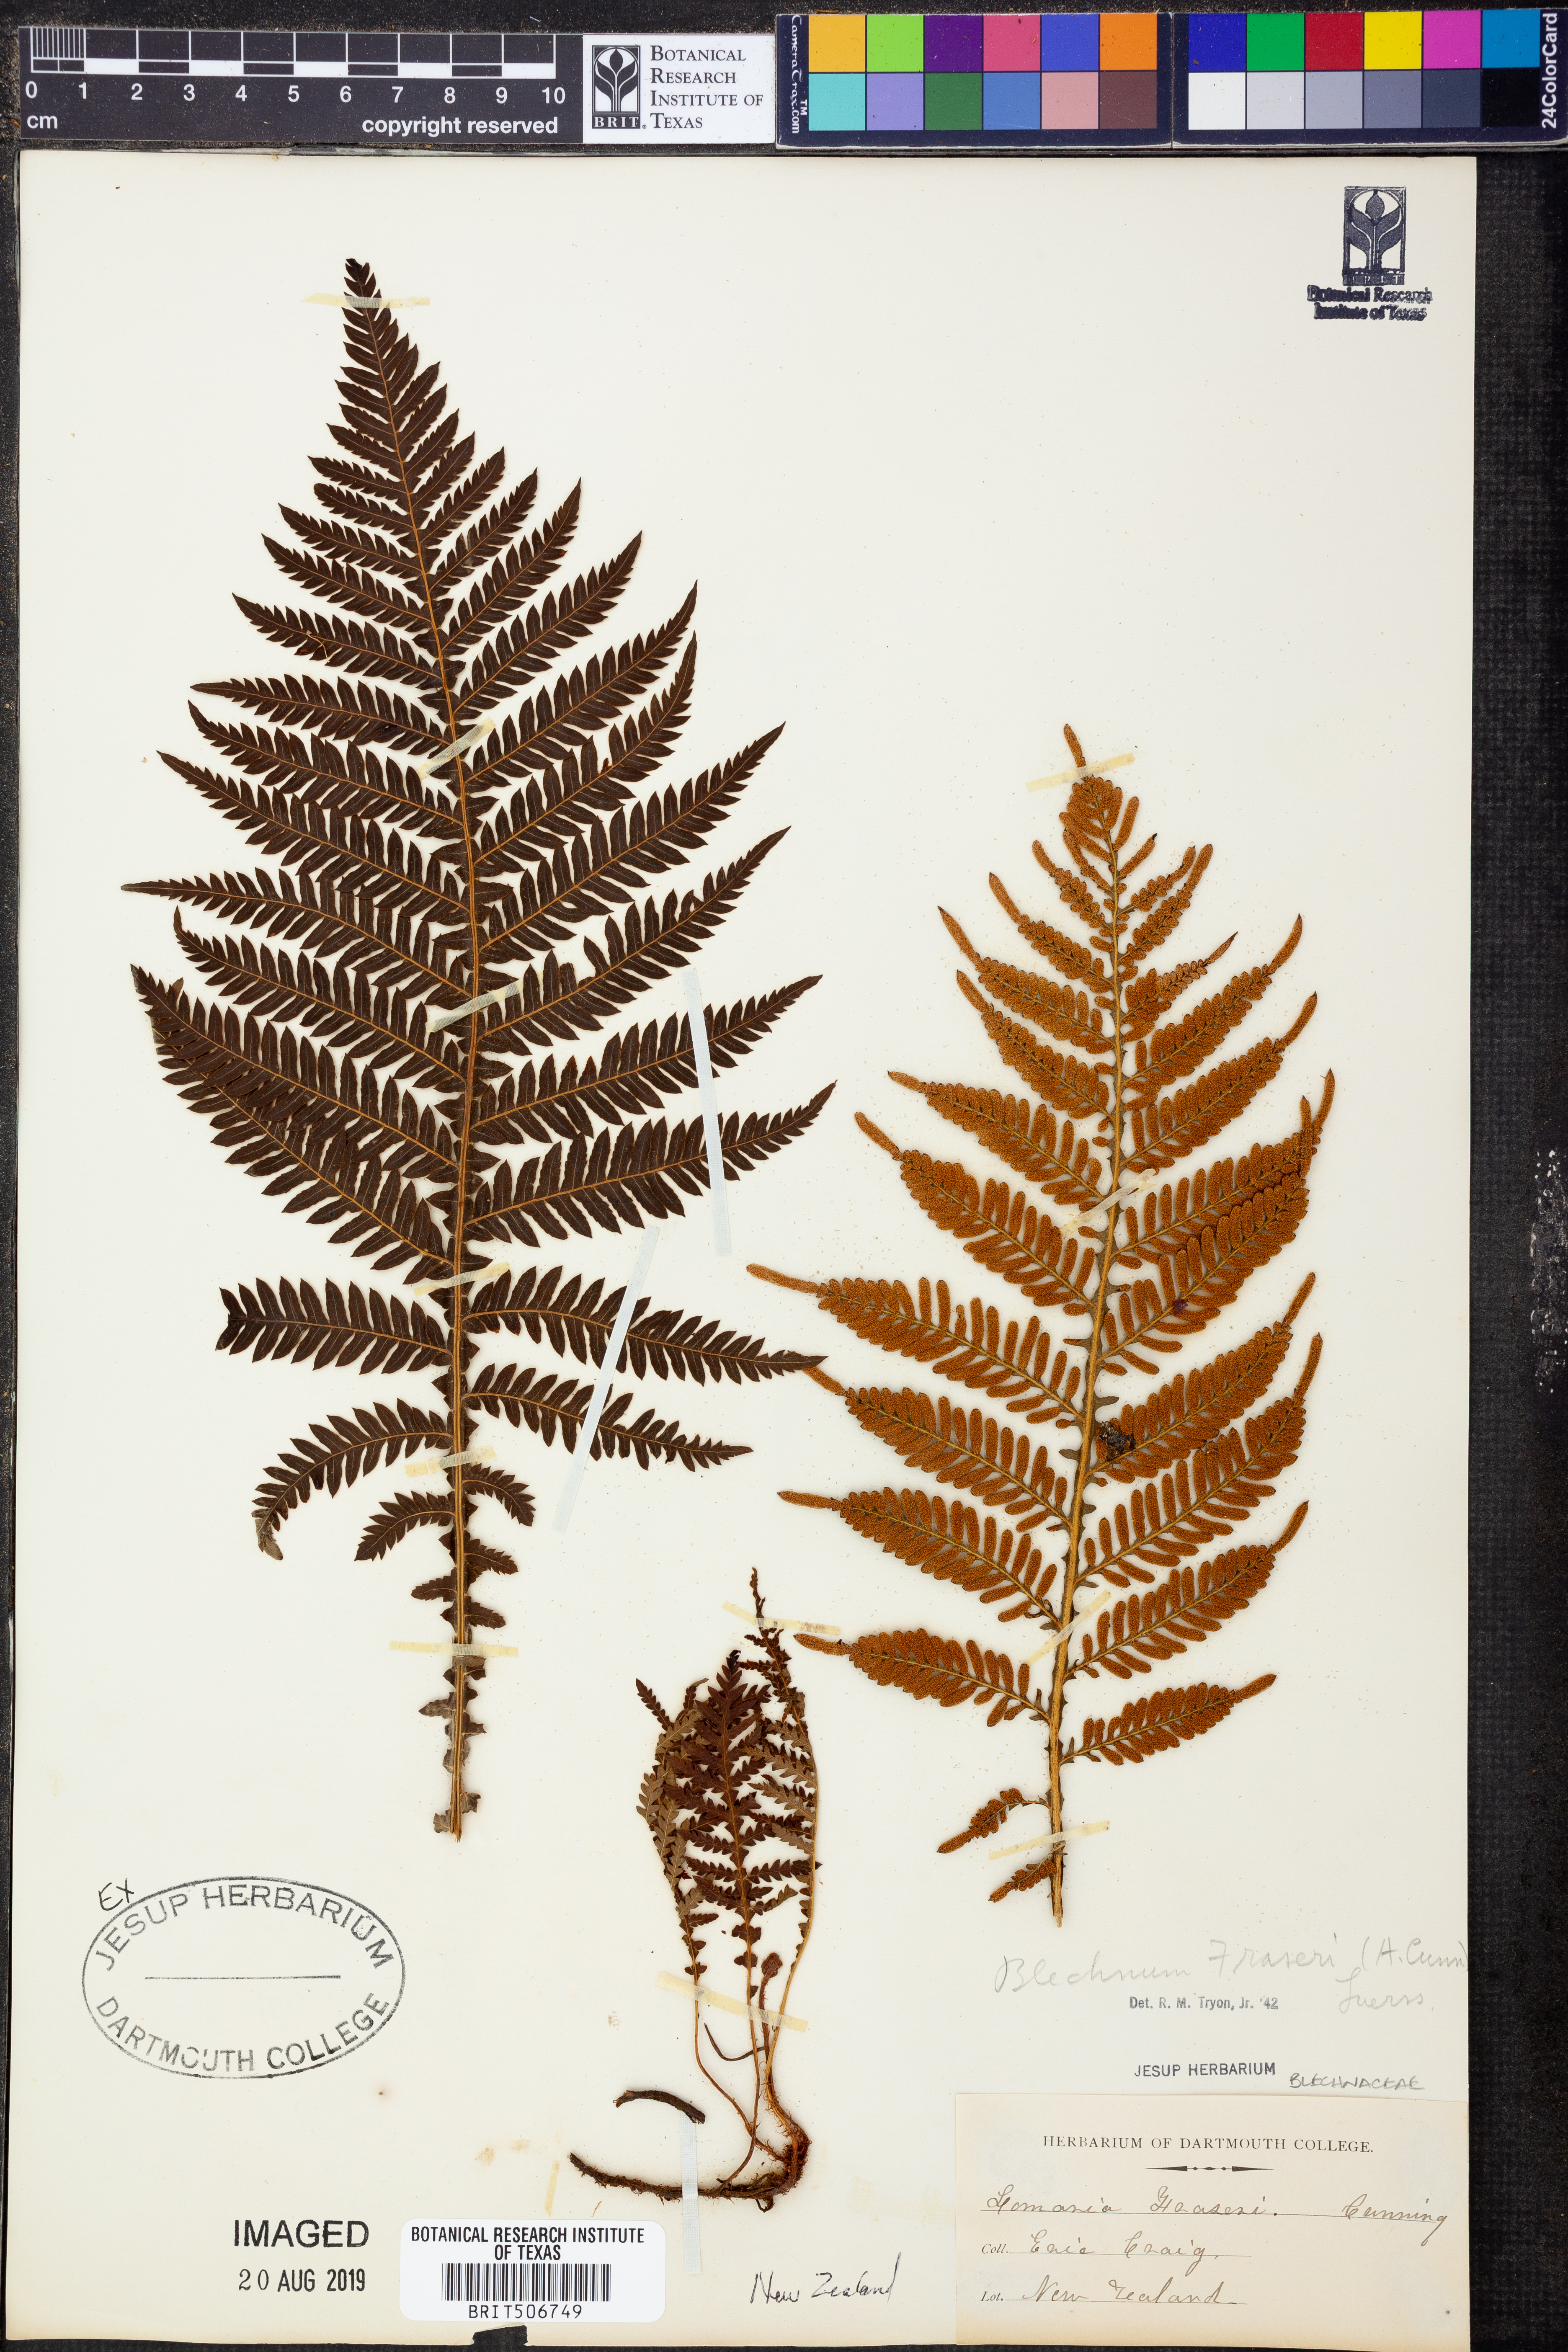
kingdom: Plantae
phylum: Tracheophyta
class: Polypodiopsida
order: Polypodiales
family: Blechnaceae
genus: Diploblechnum
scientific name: Diploblechnum fraseri
